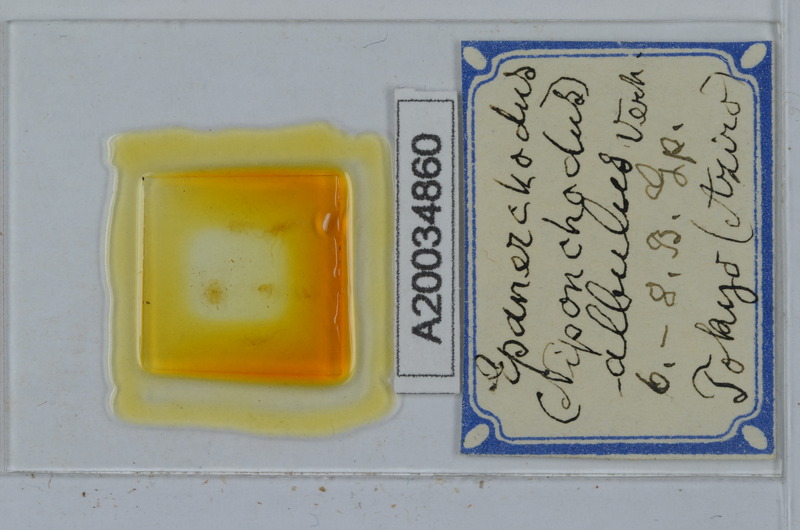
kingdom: Animalia
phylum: Arthropoda
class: Diplopoda
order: Polydesmida
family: Polydesmidae
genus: Niponchodus
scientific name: Niponchodus albulus
